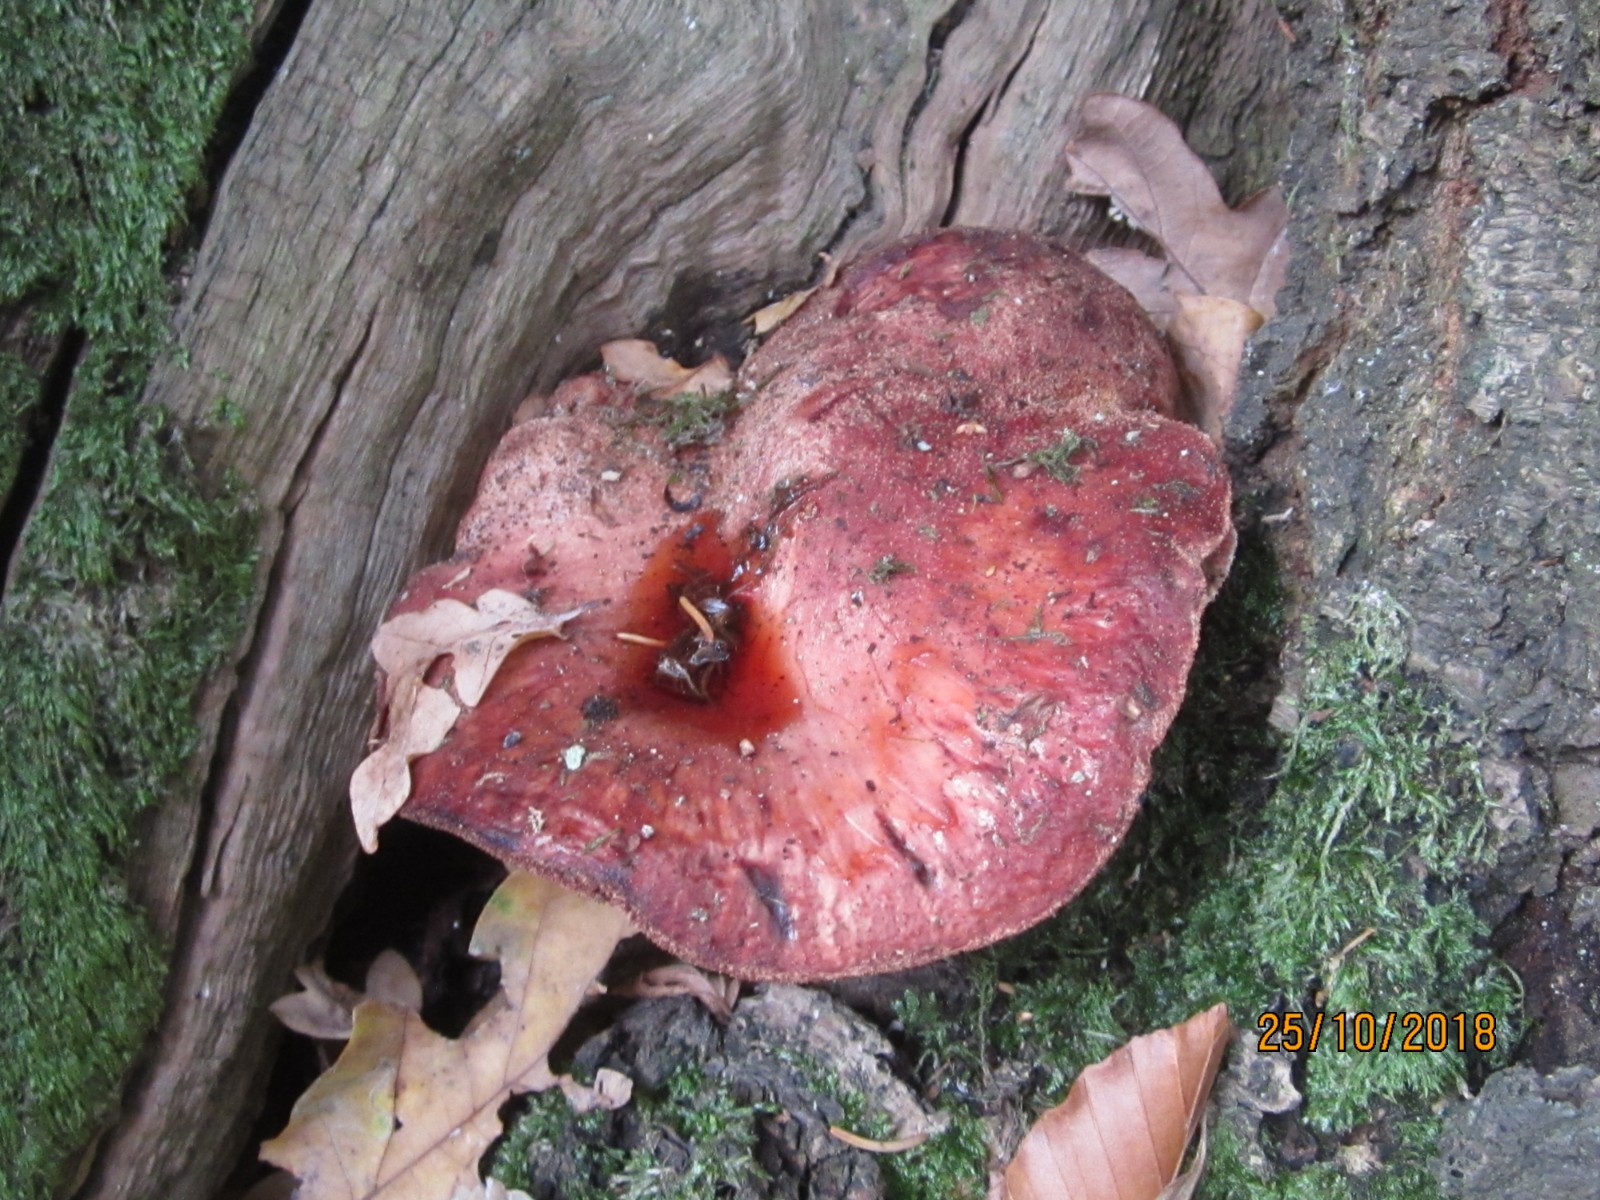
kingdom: Fungi
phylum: Basidiomycota
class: Agaricomycetes
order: Agaricales
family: Fistulinaceae
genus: Fistulina
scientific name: Fistulina hepatica
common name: oksetunge
